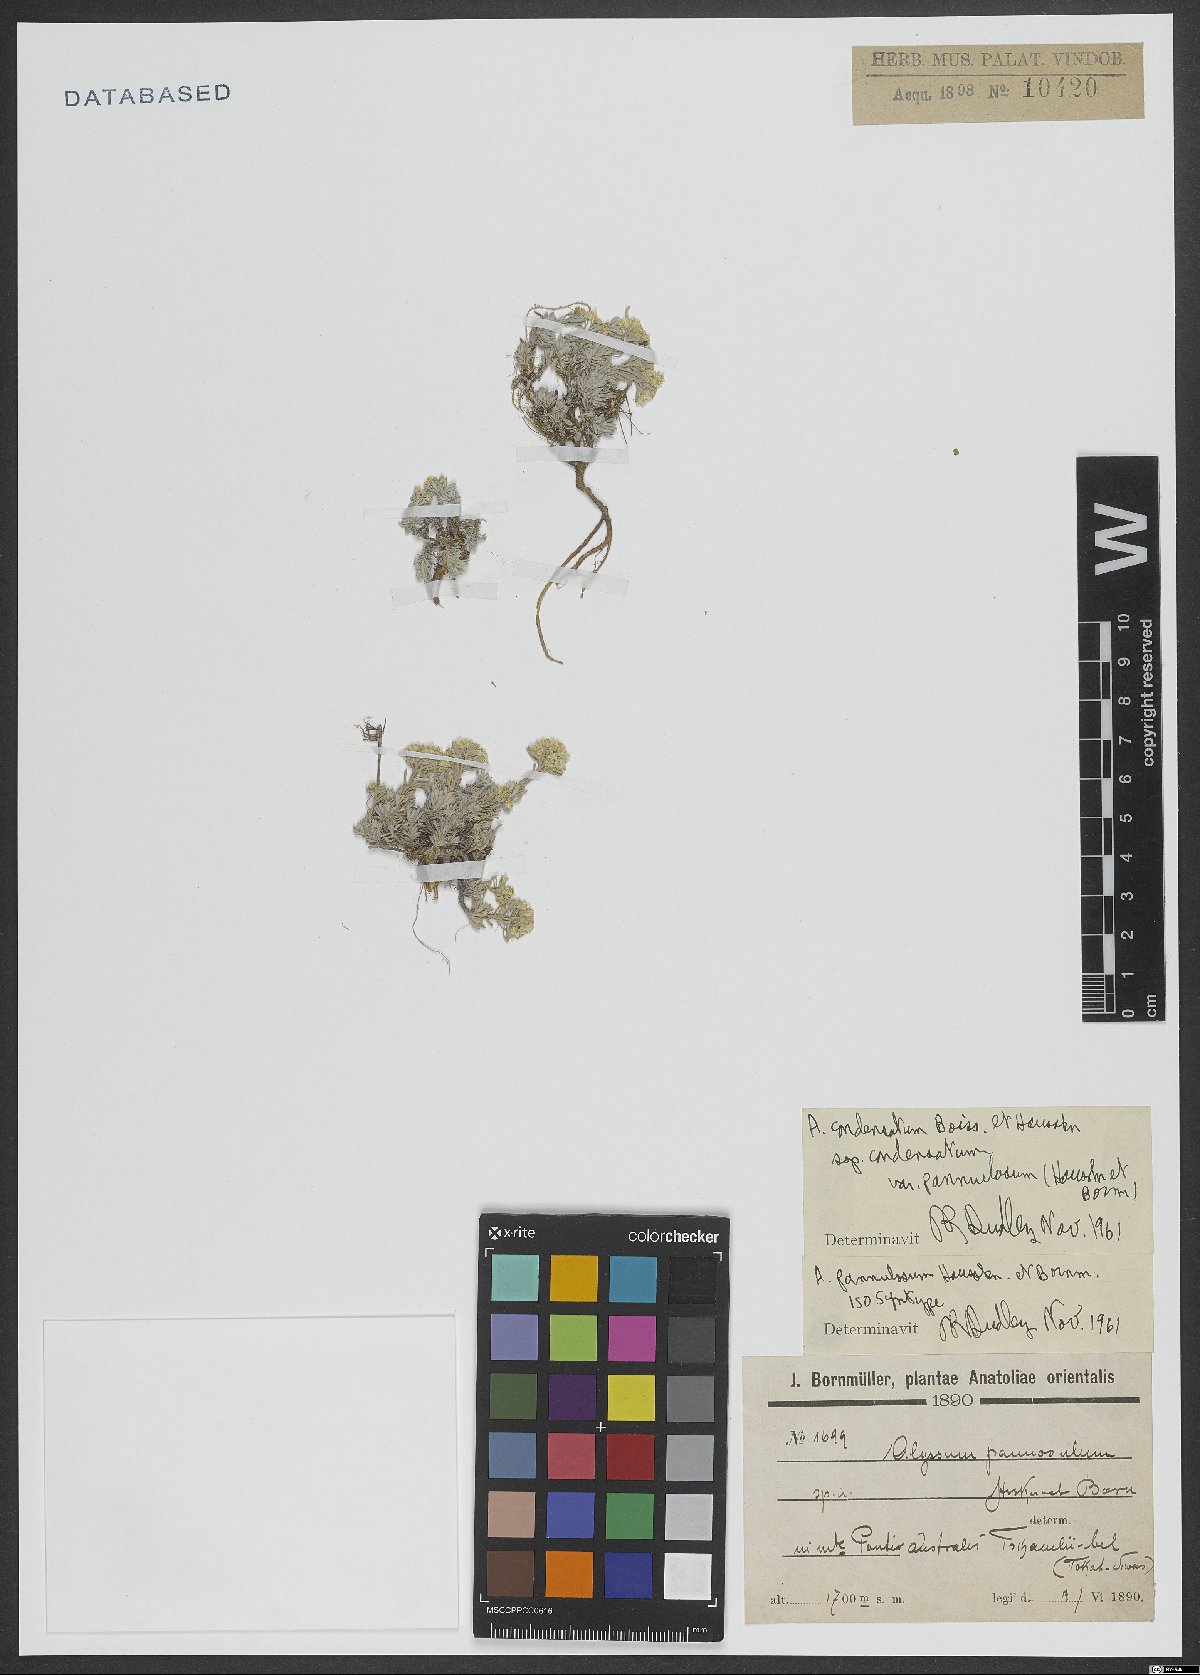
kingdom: Plantae
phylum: Tracheophyta
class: Magnoliopsida
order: Brassicales
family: Brassicaceae
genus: Odontarrhena
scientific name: Odontarrhena condensata
